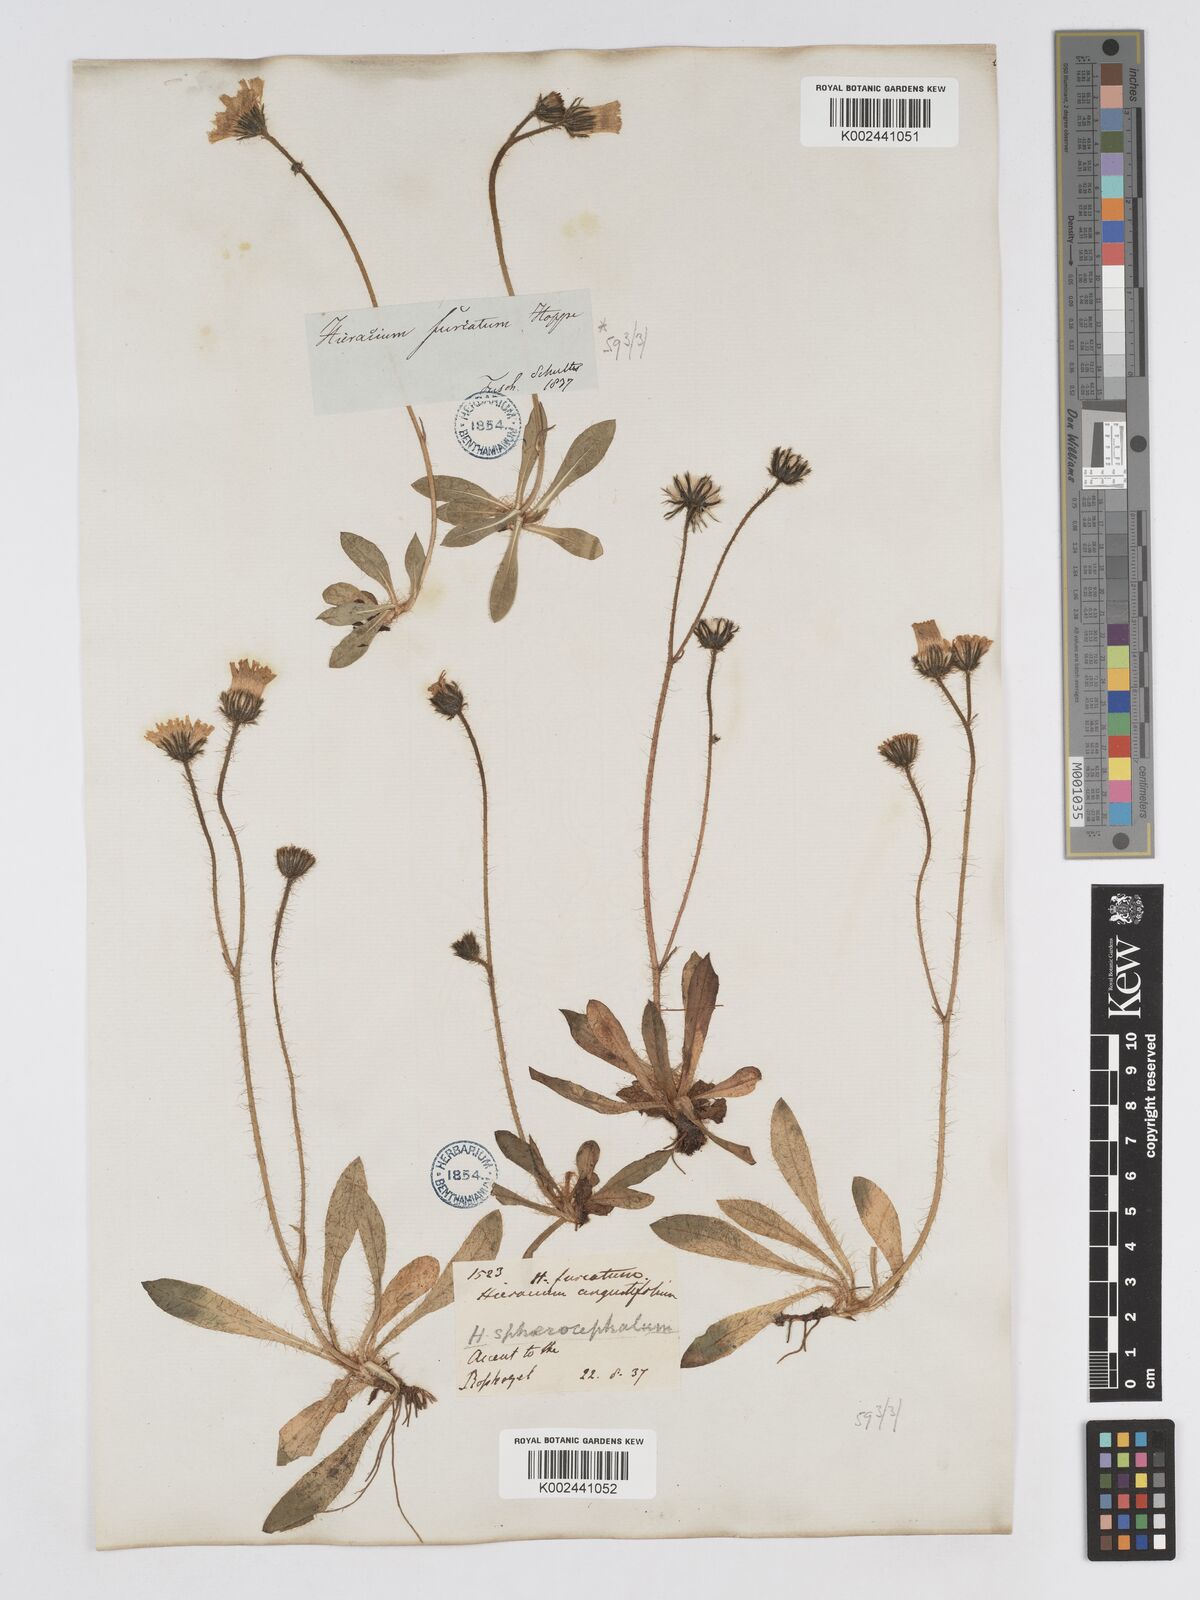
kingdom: Plantae
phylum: Tracheophyta
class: Magnoliopsida
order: Asterales
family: Asteraceae
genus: Pilosella
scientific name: Pilosella sphaerocephala
